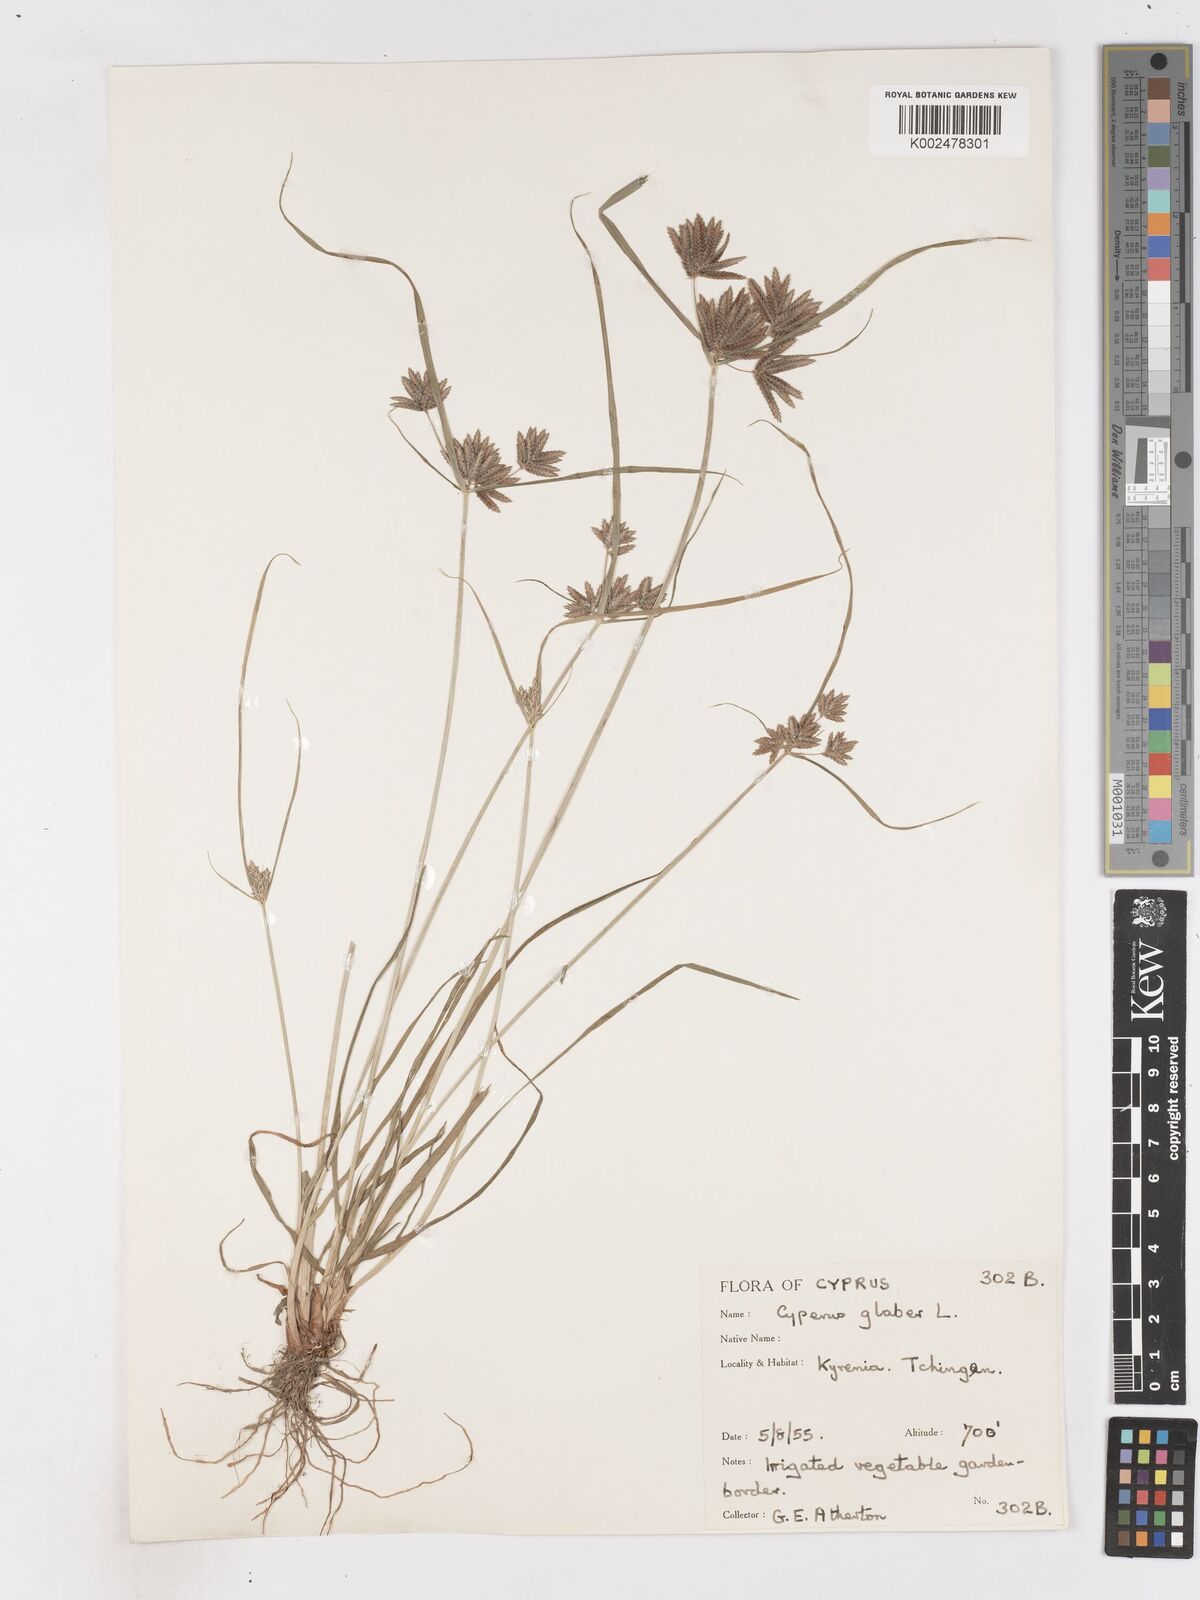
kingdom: Plantae
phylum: Tracheophyta
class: Liliopsida
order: Poales
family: Cyperaceae
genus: Cyperus
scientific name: Cyperus glaber
